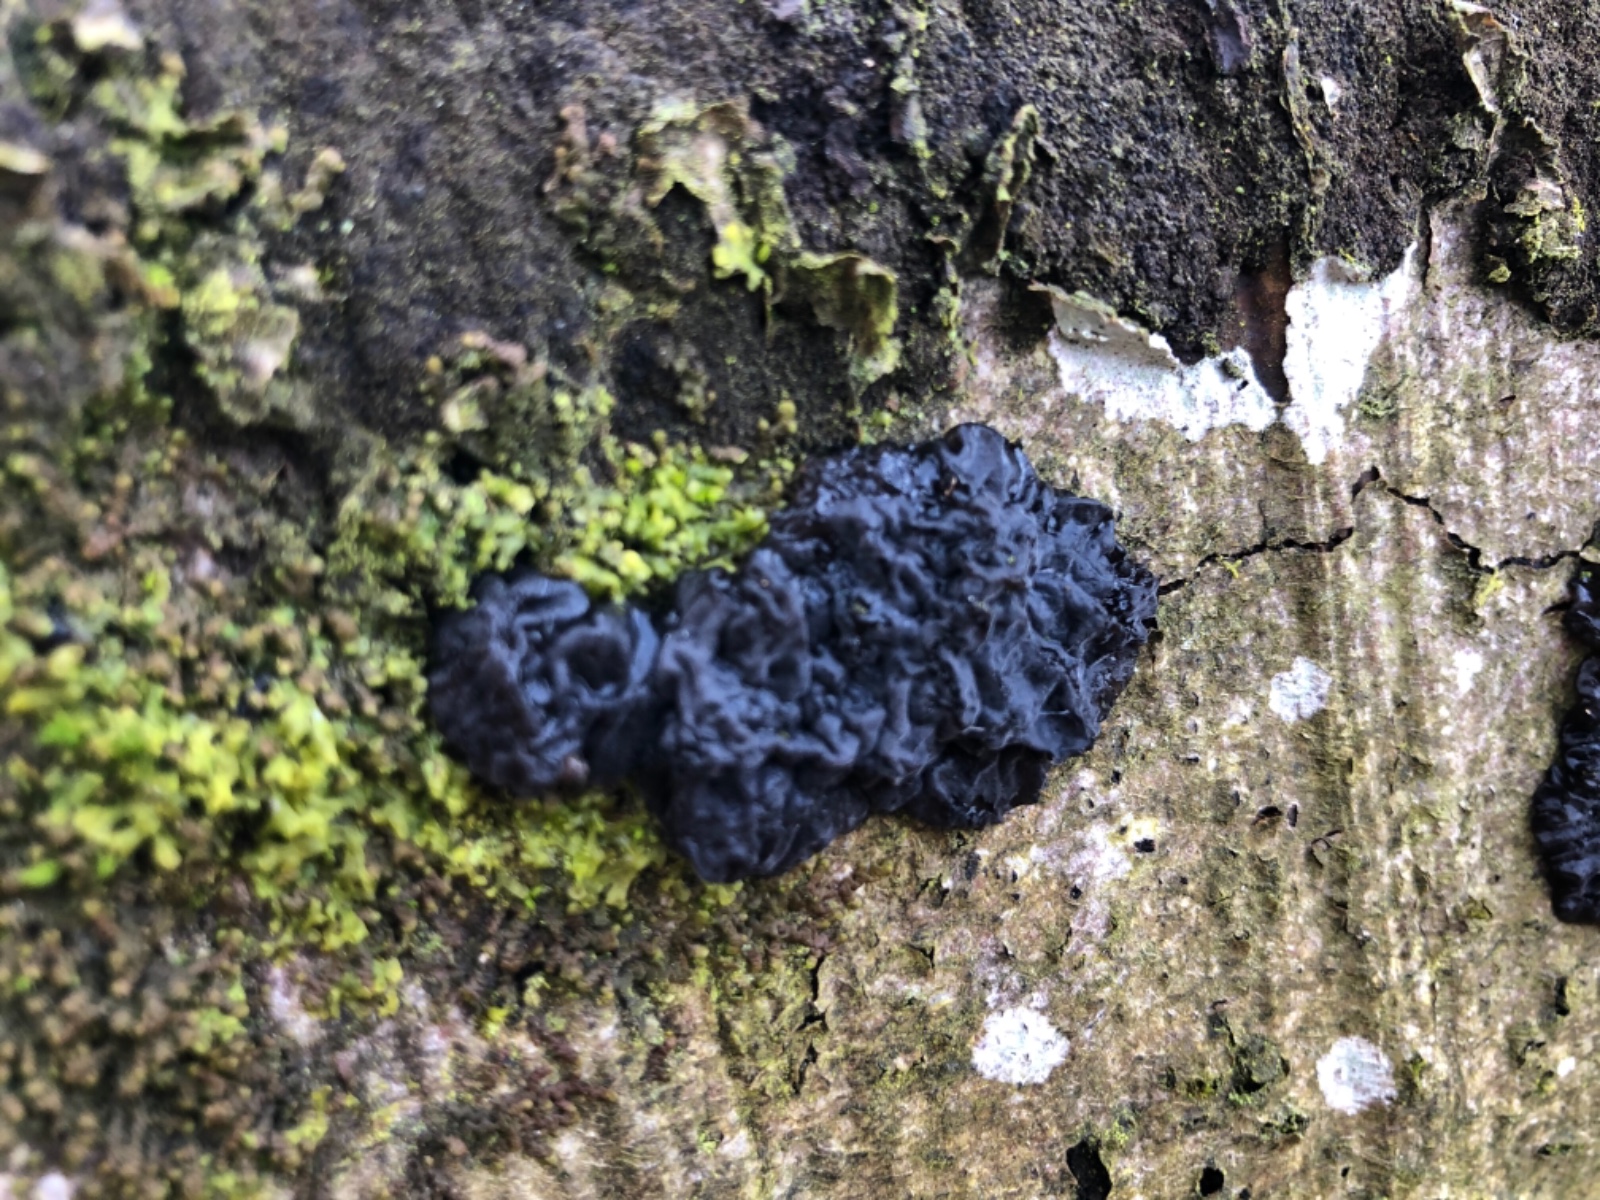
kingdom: Fungi
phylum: Basidiomycota
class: Agaricomycetes
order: Auriculariales
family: Auriculariaceae
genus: Exidia
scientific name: Exidia nigricans
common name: almindelig bævretop
